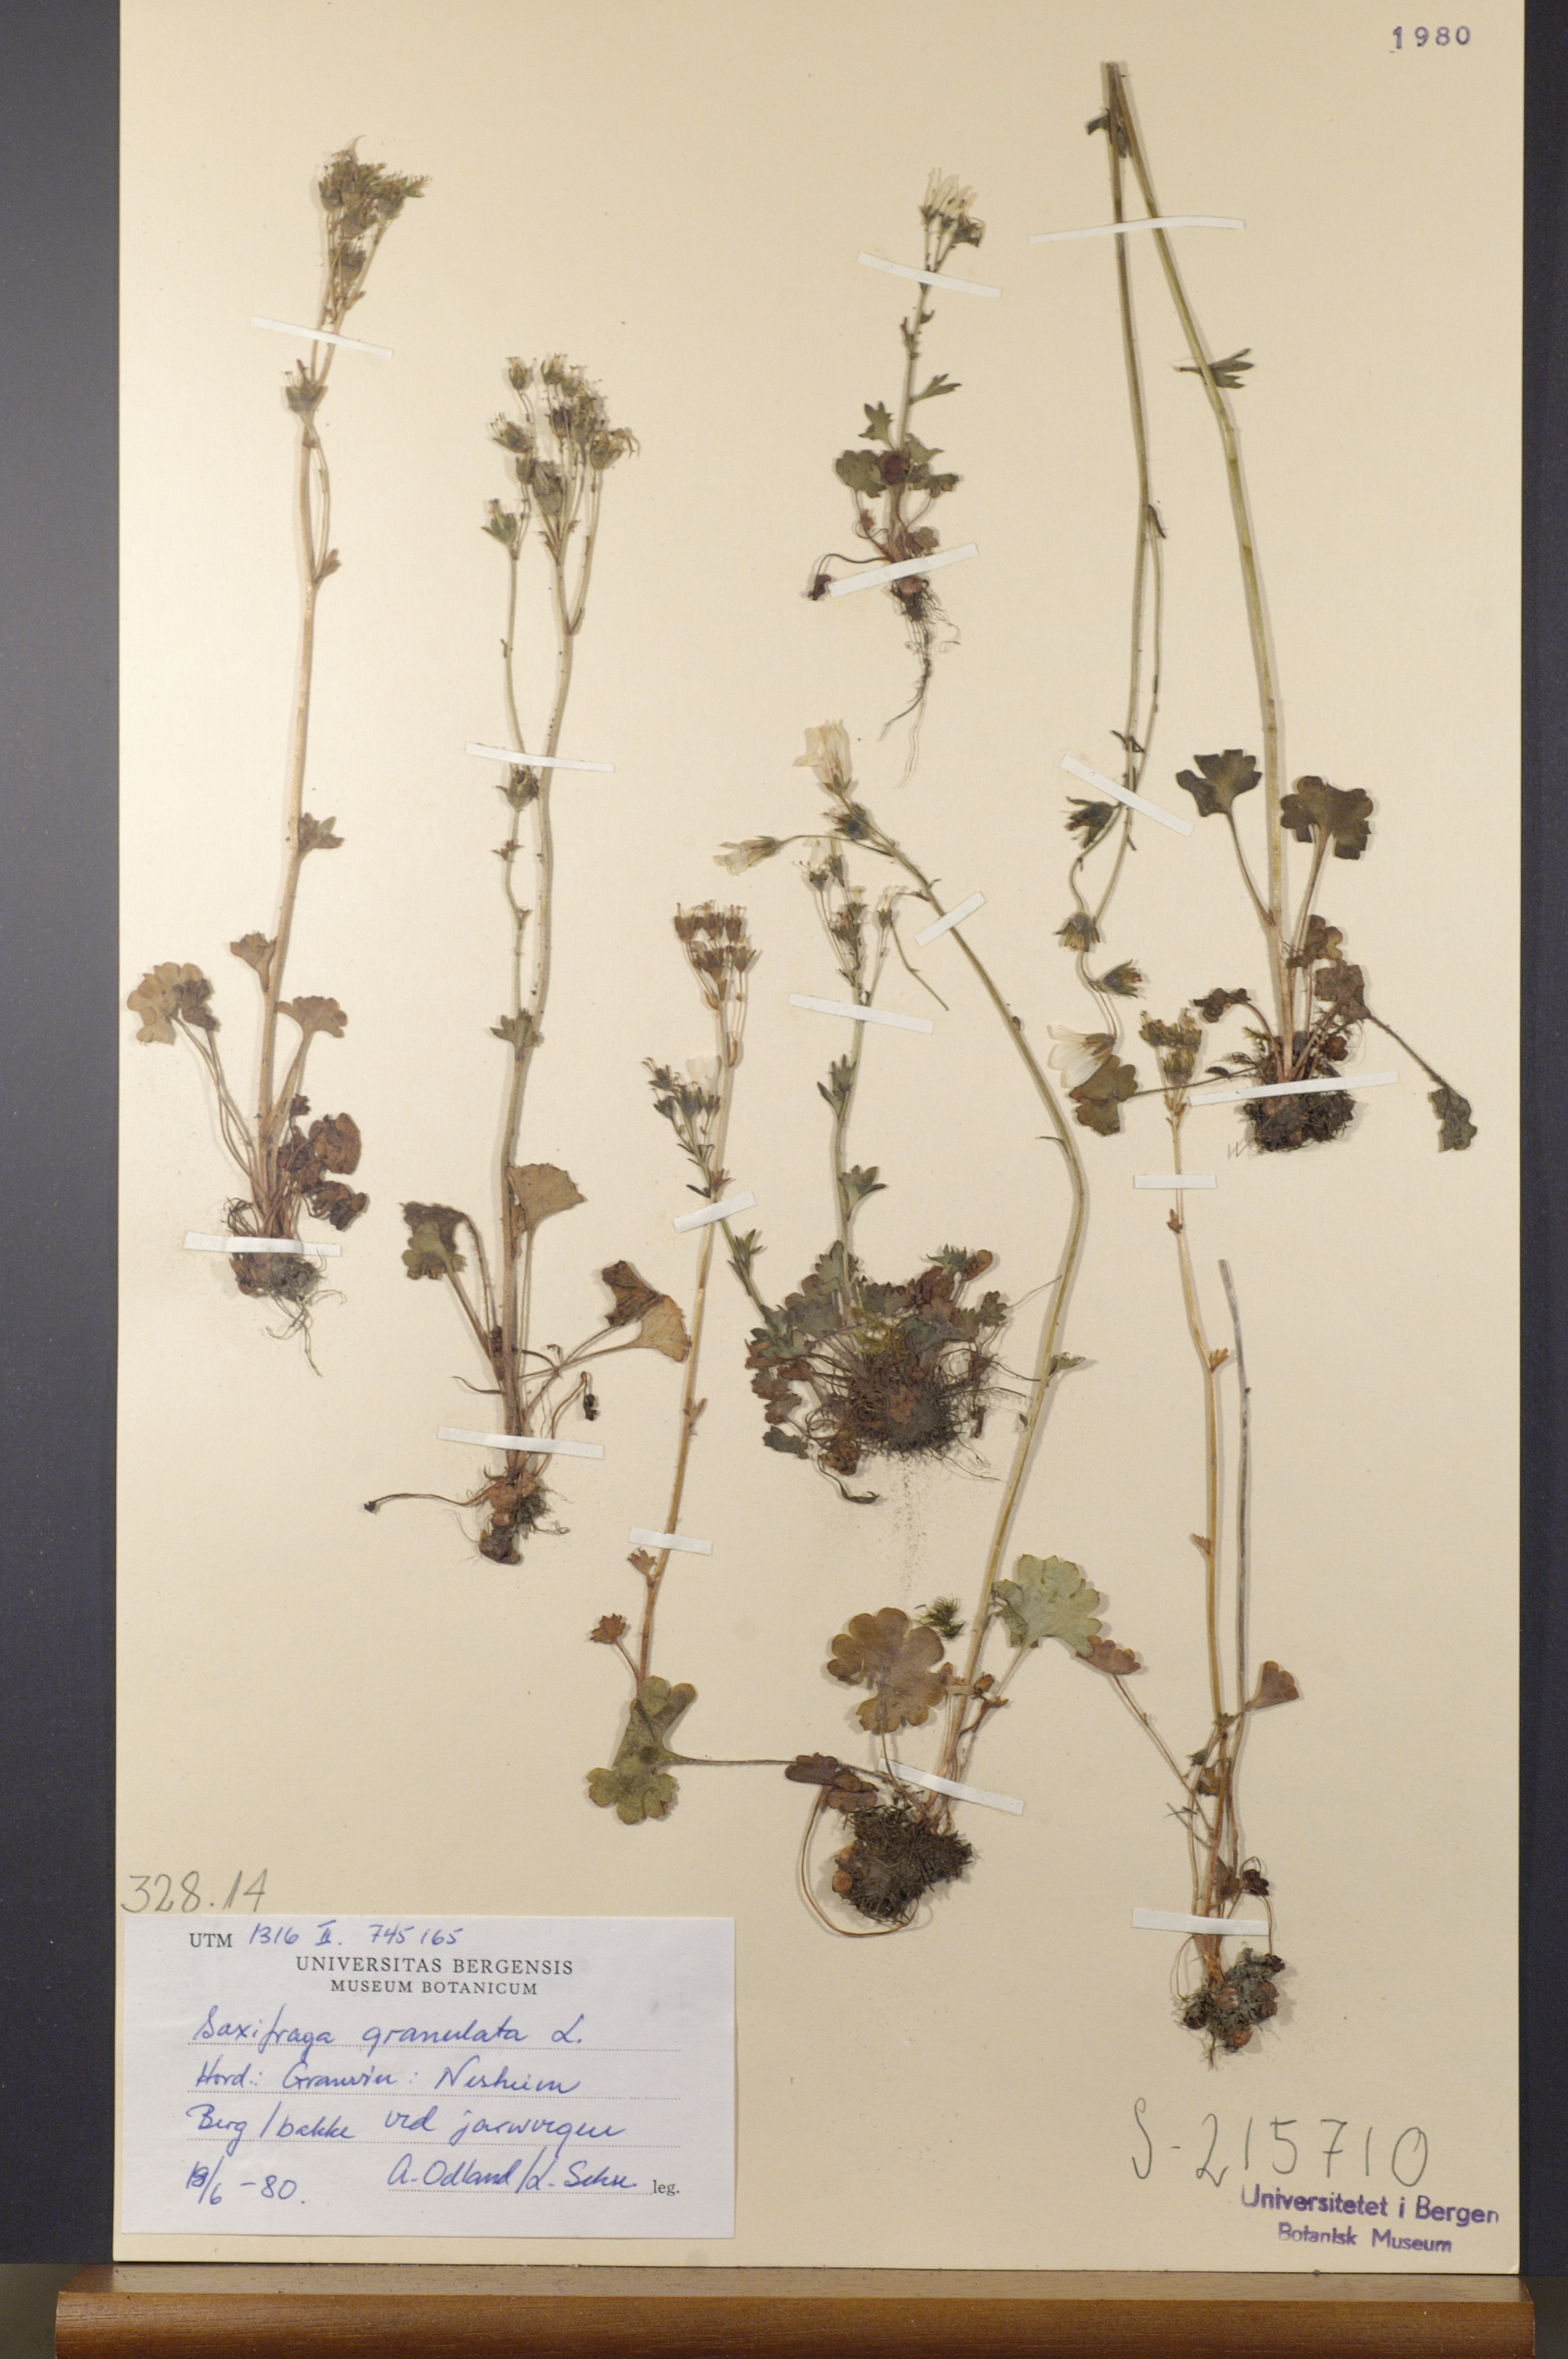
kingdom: Plantae
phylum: Tracheophyta
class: Magnoliopsida
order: Saxifragales
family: Saxifragaceae
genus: Saxifraga
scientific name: Saxifraga granulata
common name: Meadow saxifrage
